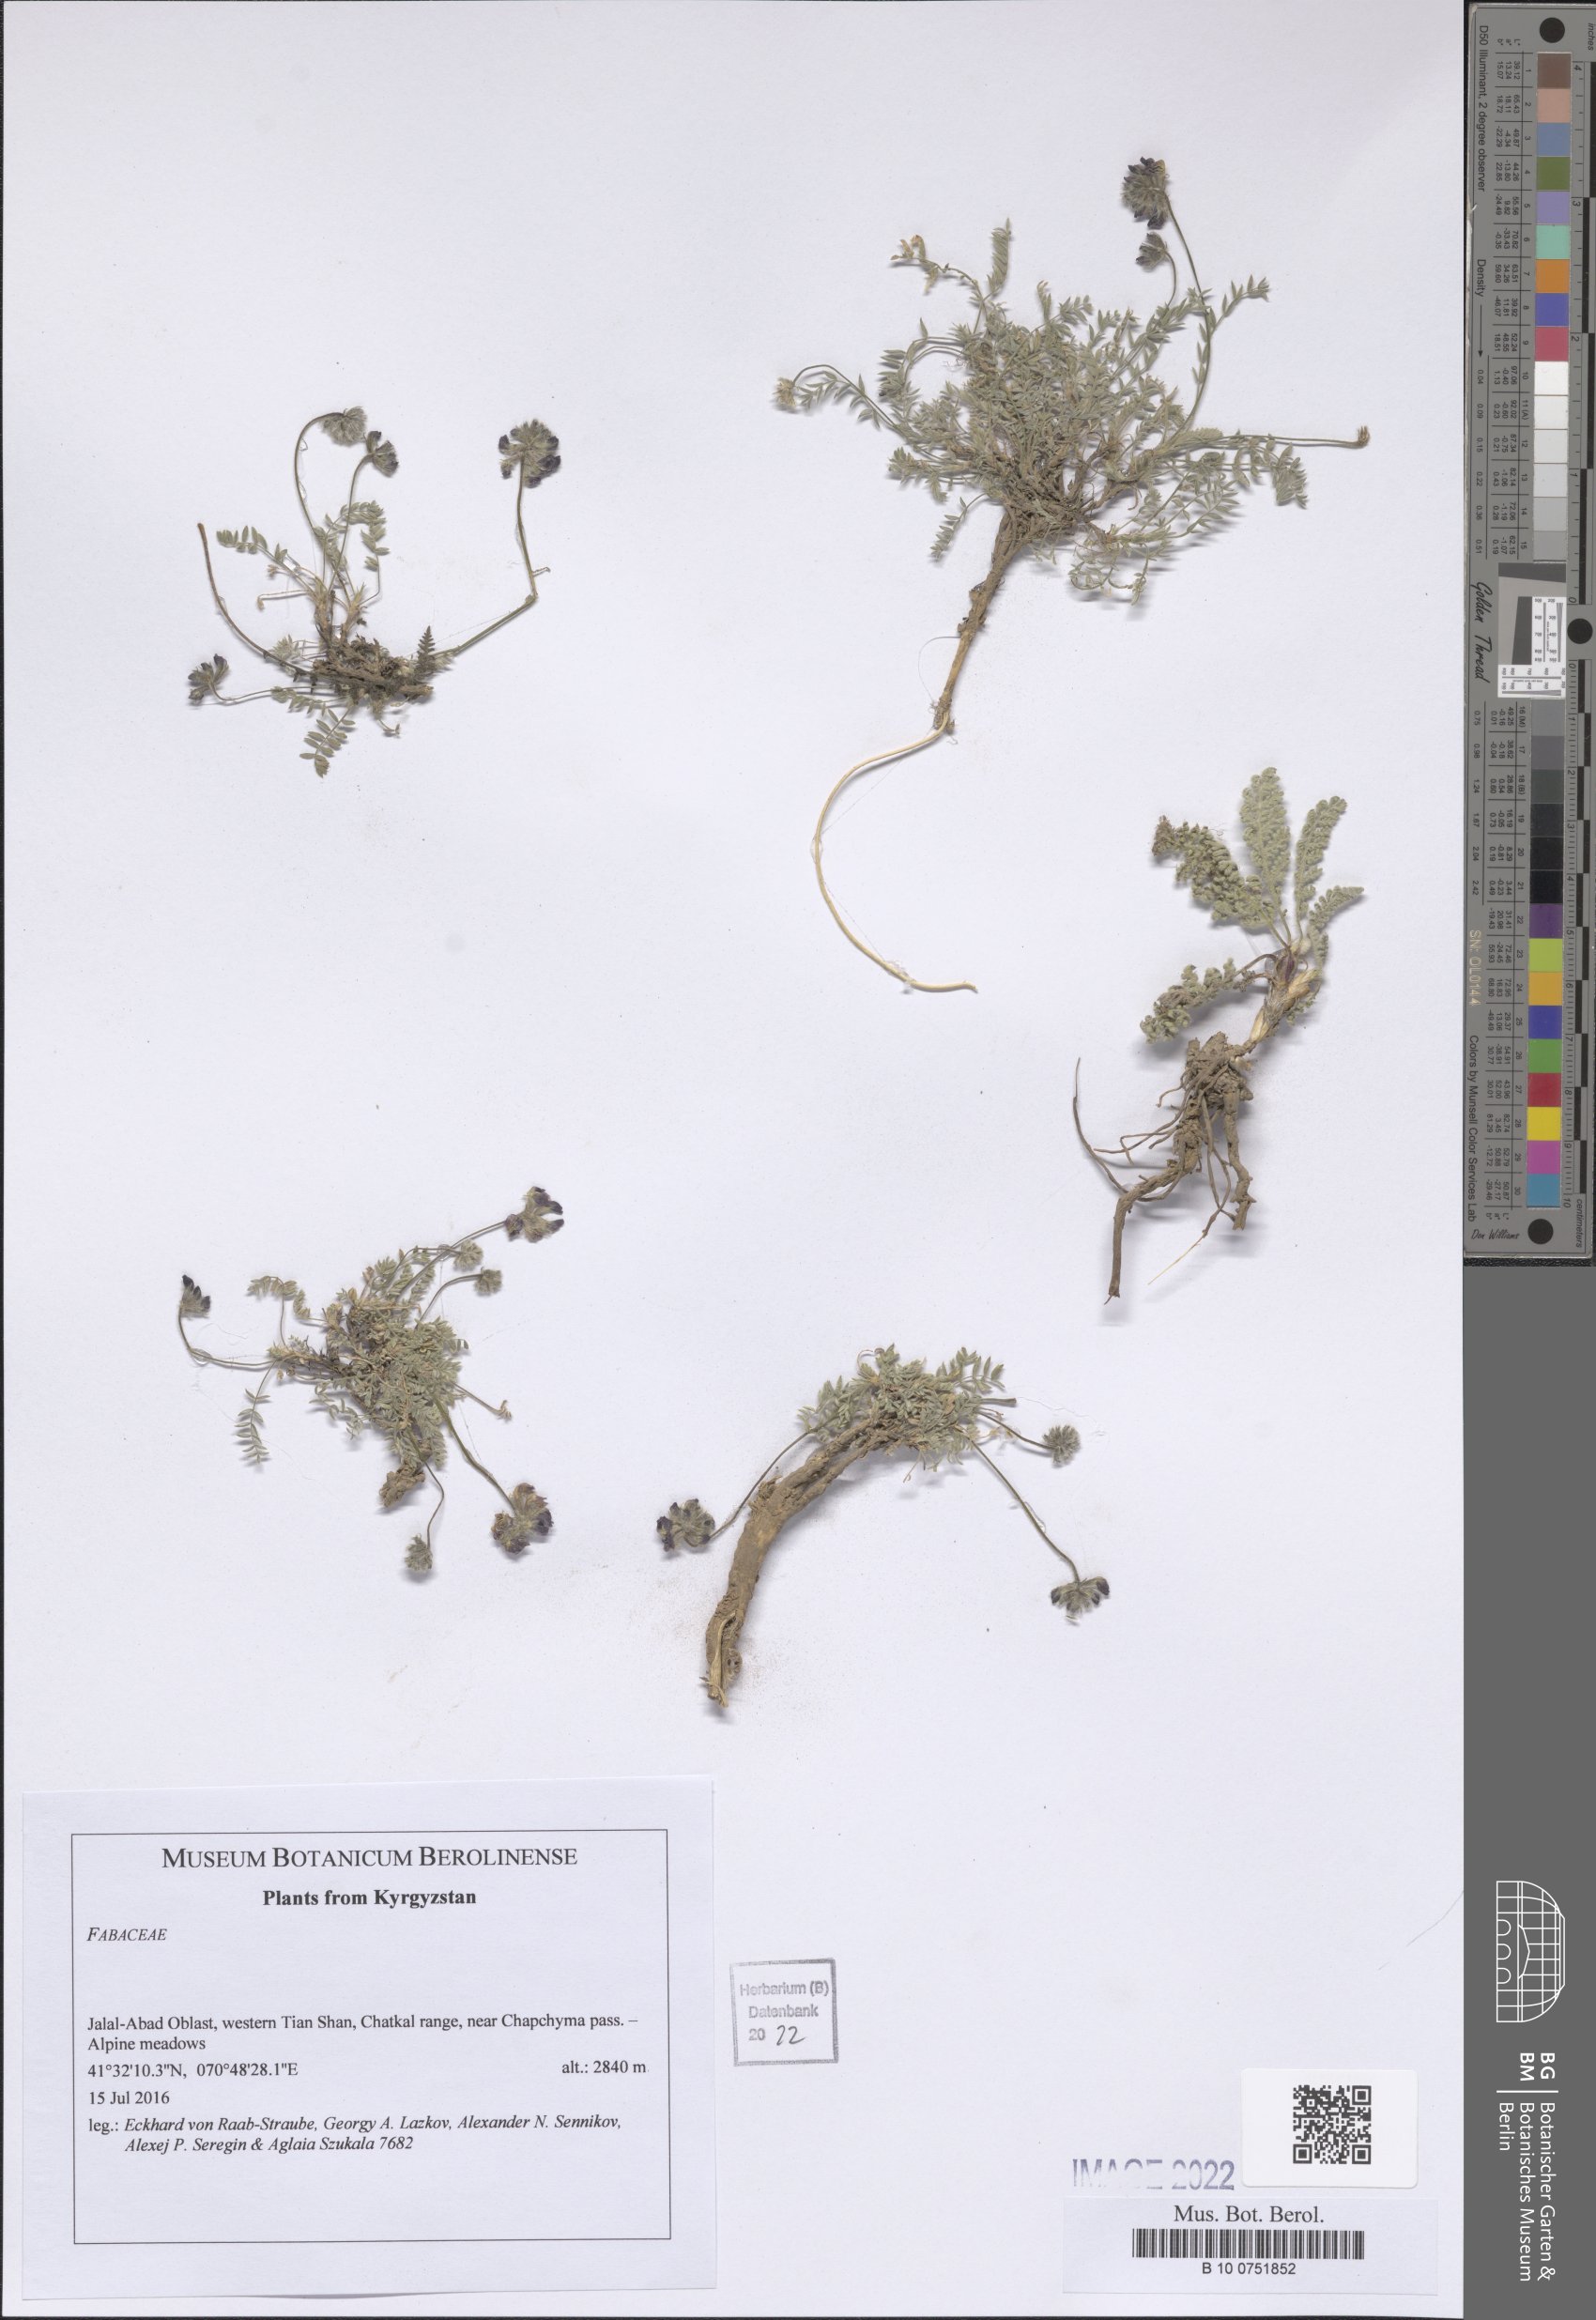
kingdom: Plantae
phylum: Tracheophyta
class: Magnoliopsida
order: Fabales
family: Fabaceae
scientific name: Fabaceae
